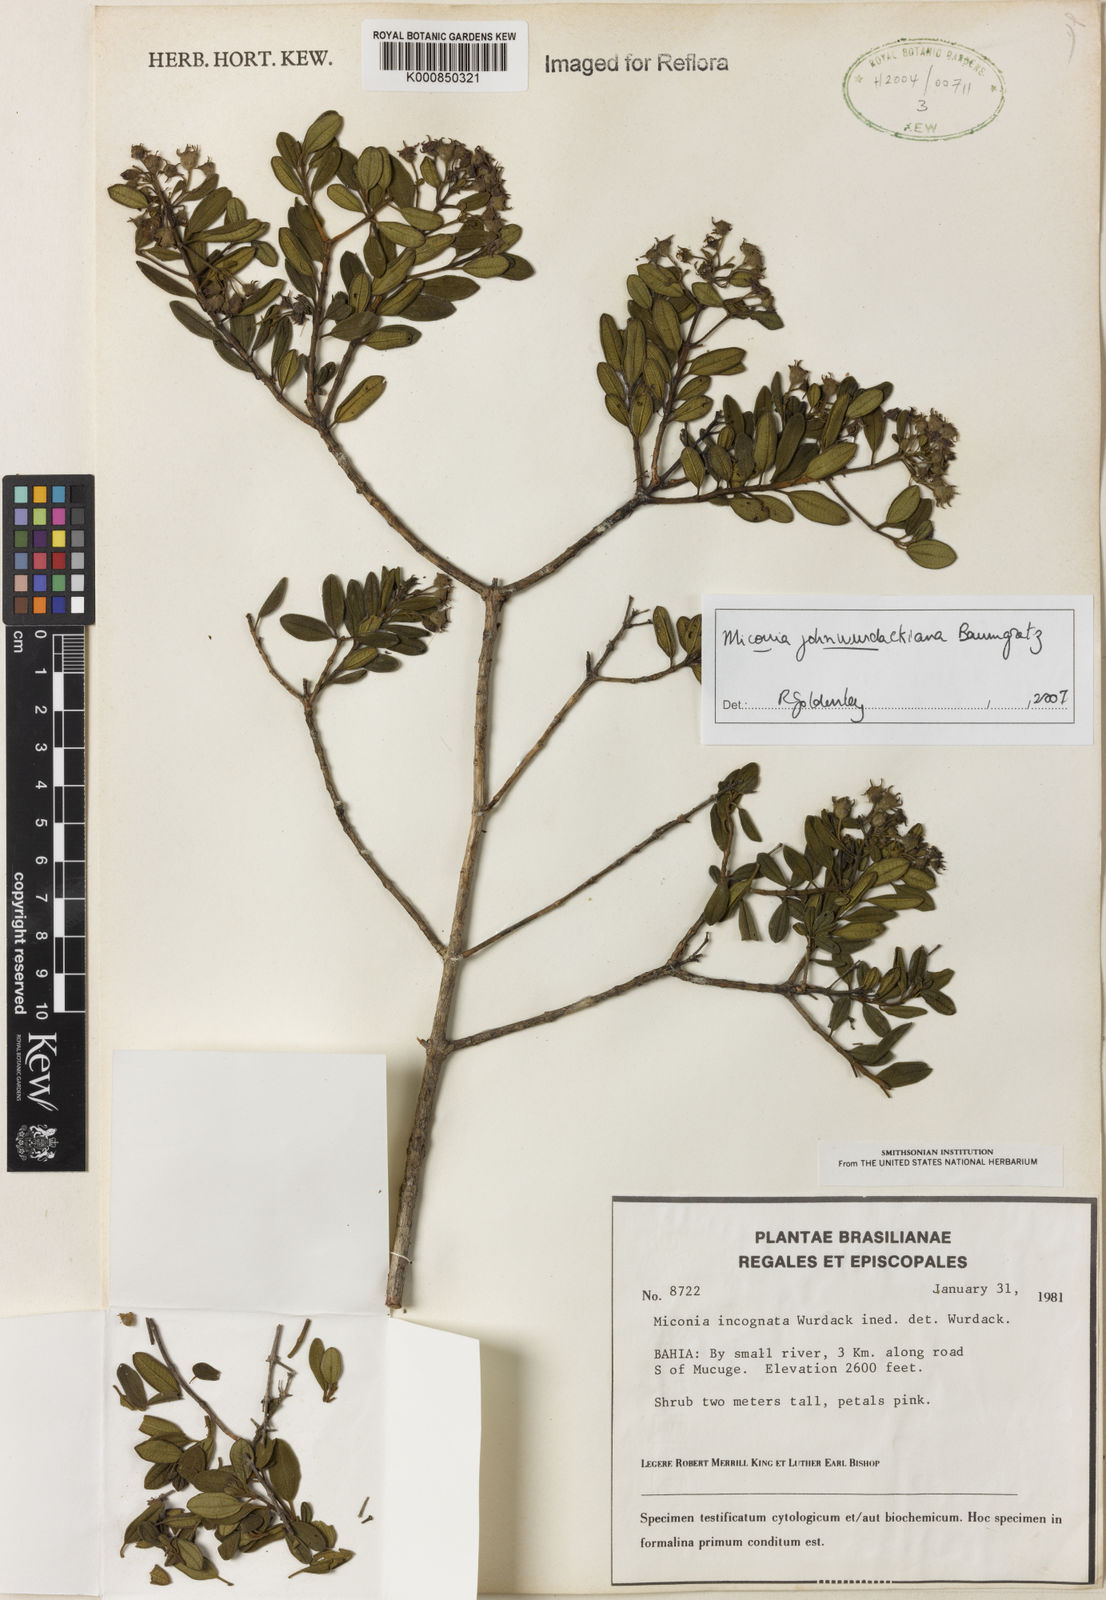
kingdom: Plantae
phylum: Tracheophyta
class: Magnoliopsida
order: Myrtales
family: Melastomataceae
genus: Miconia
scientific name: Miconia
